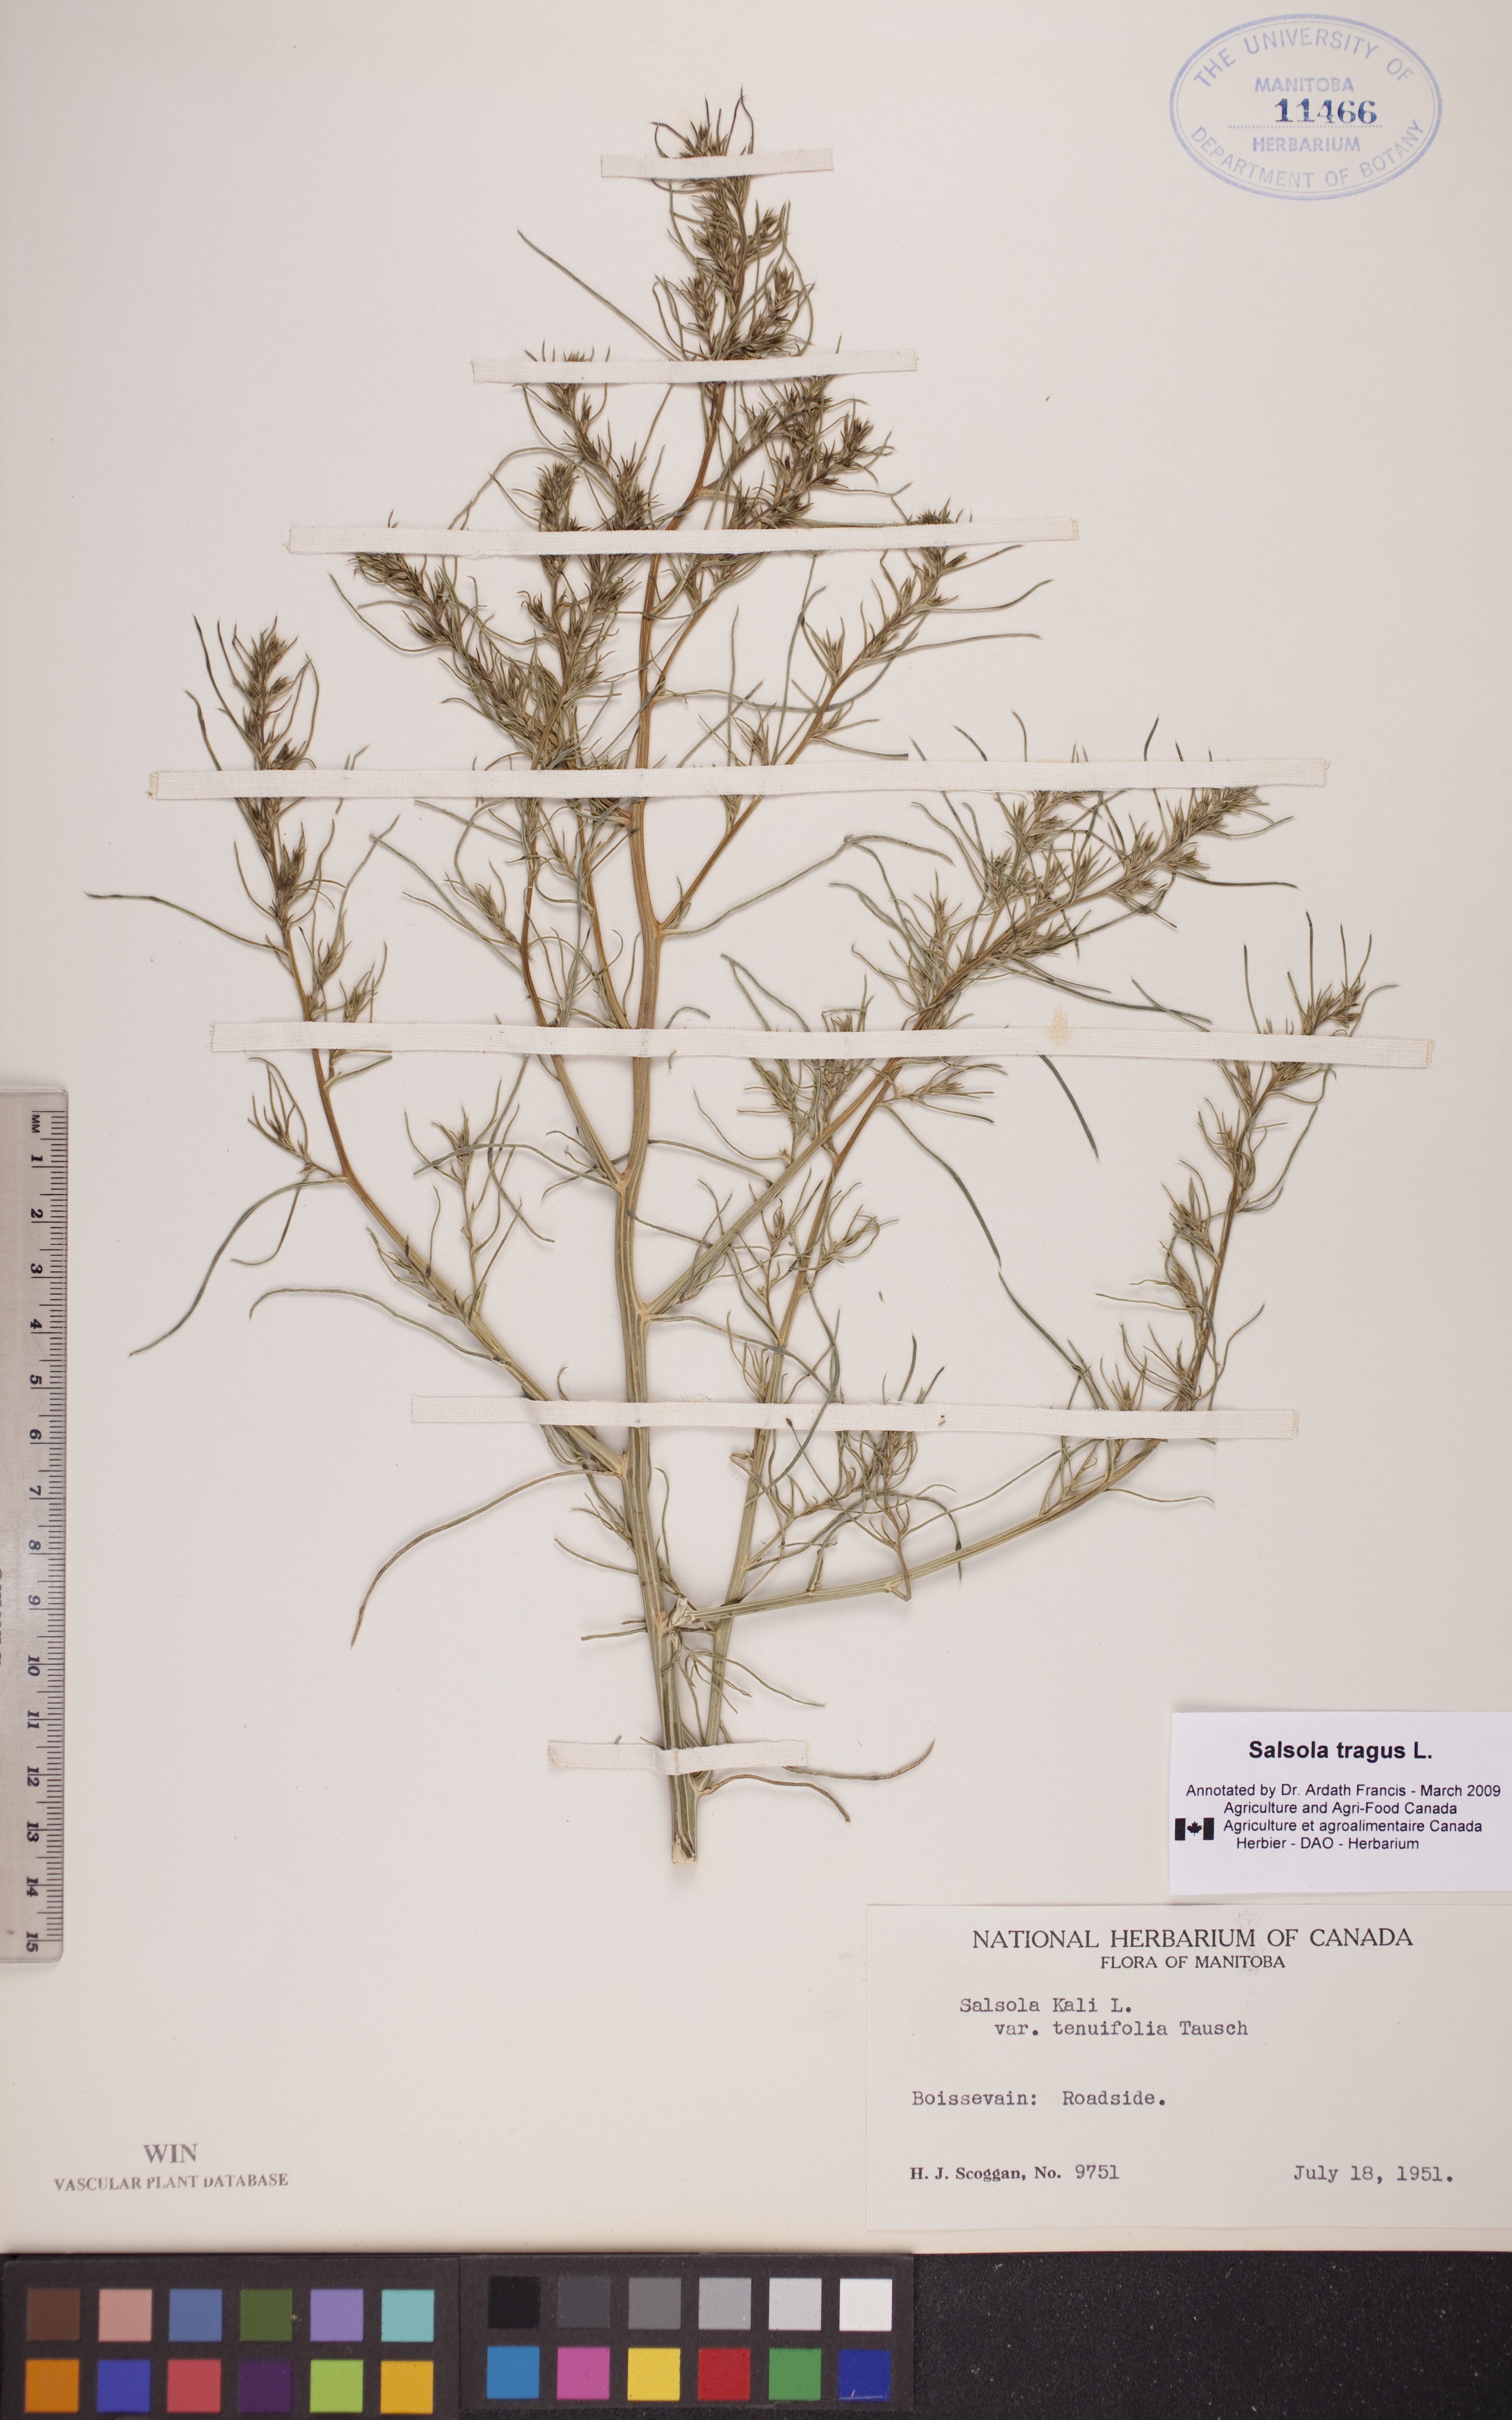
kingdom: Plantae
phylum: Tracheophyta
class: Magnoliopsida
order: Caryophyllales
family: Amaranthaceae
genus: Salsola
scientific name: Salsola tragus
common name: Prickly russian thistle
